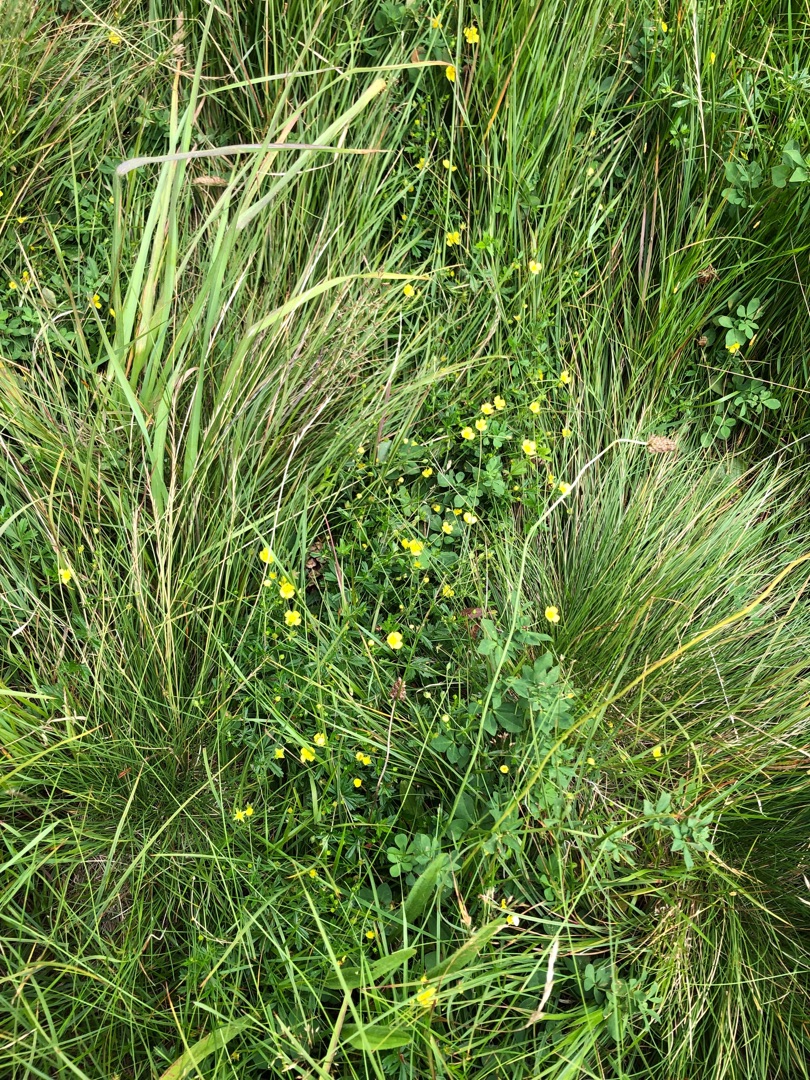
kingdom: Plantae
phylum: Tracheophyta
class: Magnoliopsida
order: Rosales
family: Rosaceae
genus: Potentilla
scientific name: Potentilla erecta
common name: Tormentil
